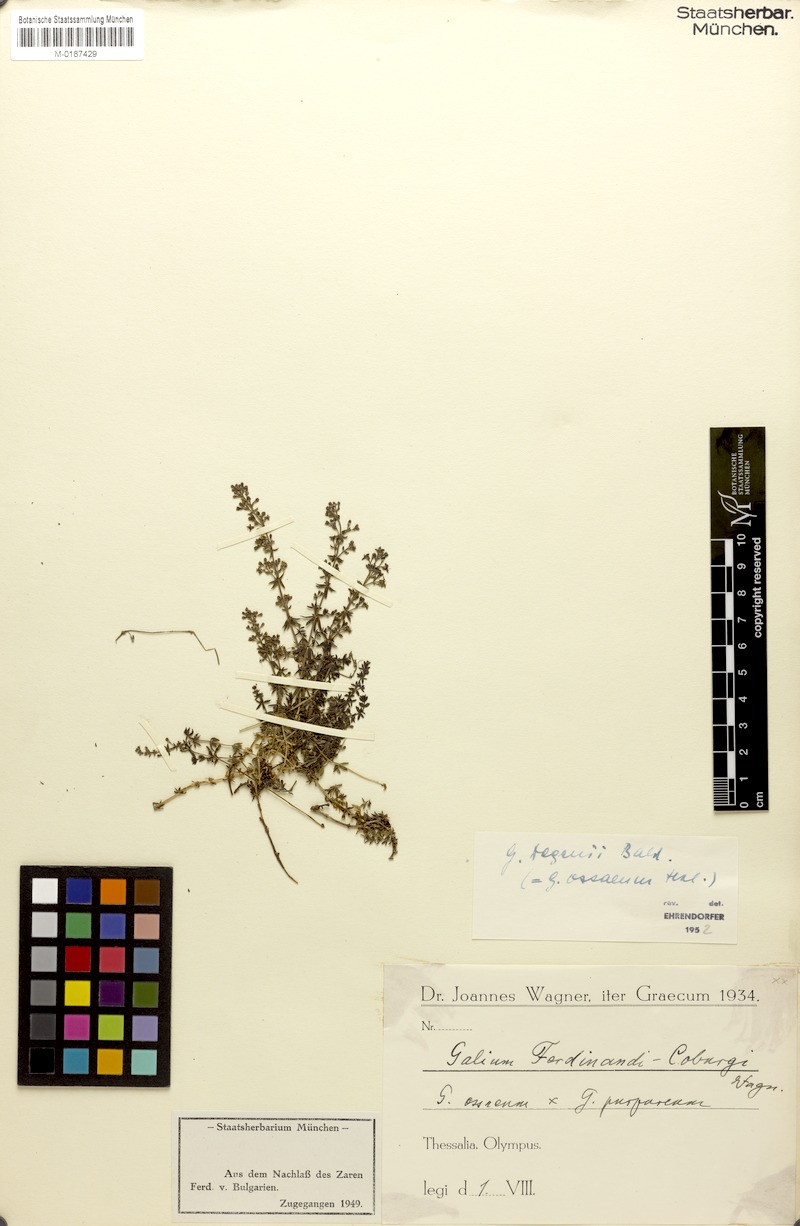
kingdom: Plantae
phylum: Tracheophyta
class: Magnoliopsida
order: Gentianales
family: Rubiaceae
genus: Galium
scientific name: Galium degenii
